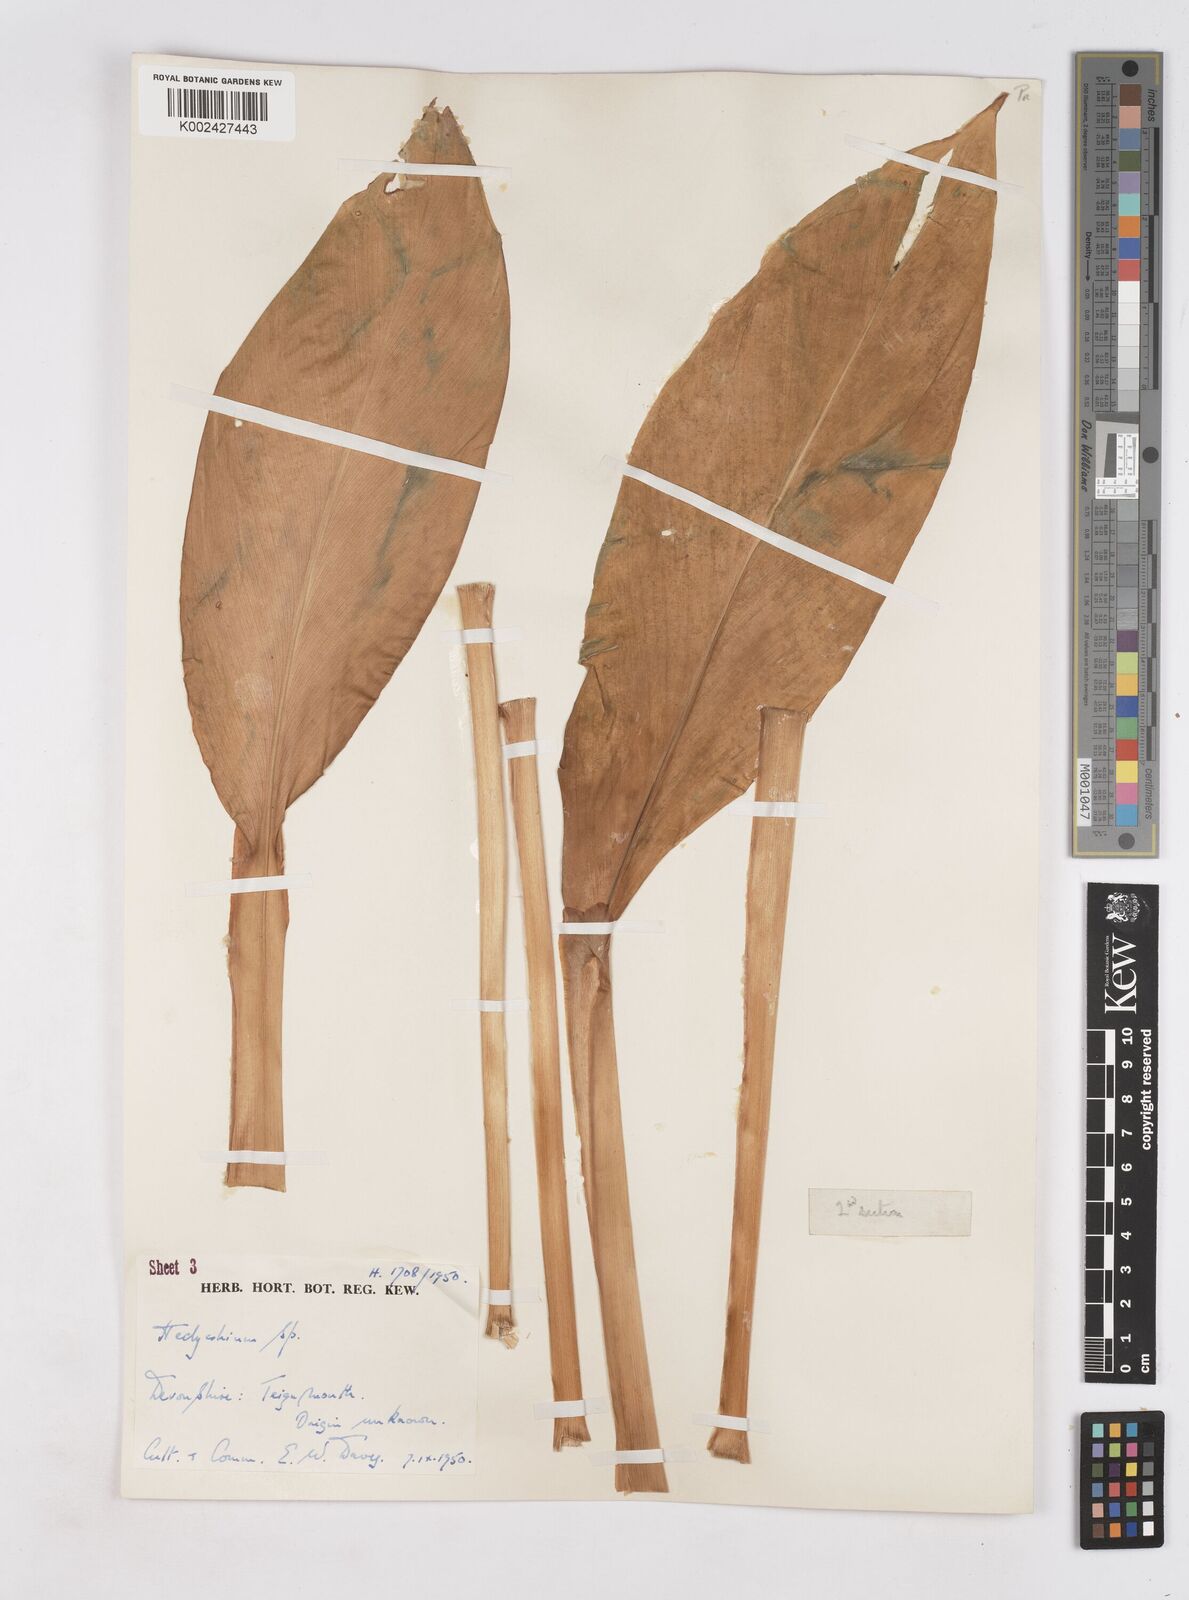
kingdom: Plantae
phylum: Tracheophyta
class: Liliopsida
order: Zingiberales
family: Zingiberaceae
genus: Hedychium
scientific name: Hedychium
